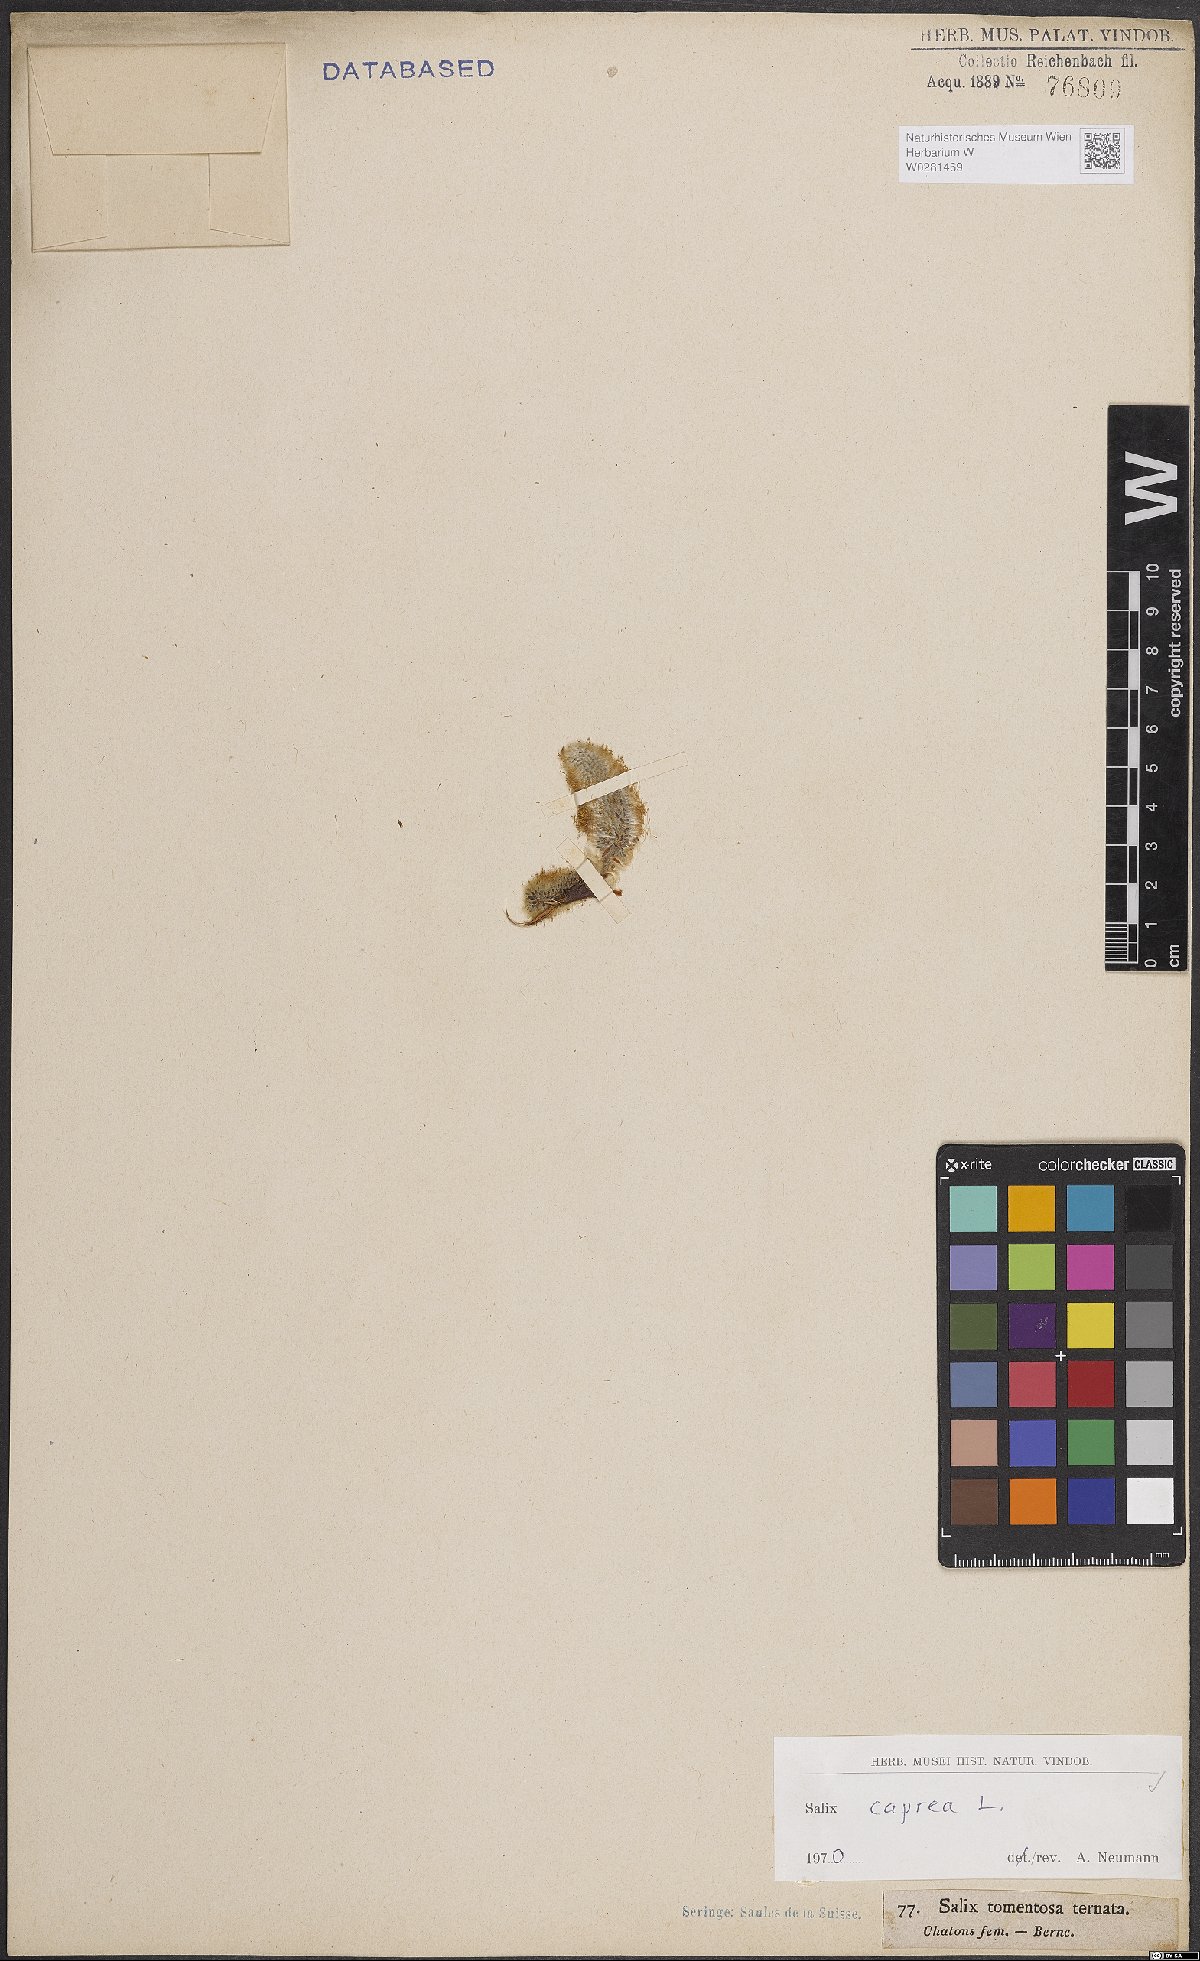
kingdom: Plantae
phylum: Tracheophyta
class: Magnoliopsida
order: Malpighiales
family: Salicaceae
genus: Salix
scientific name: Salix caprea
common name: Goat willow
